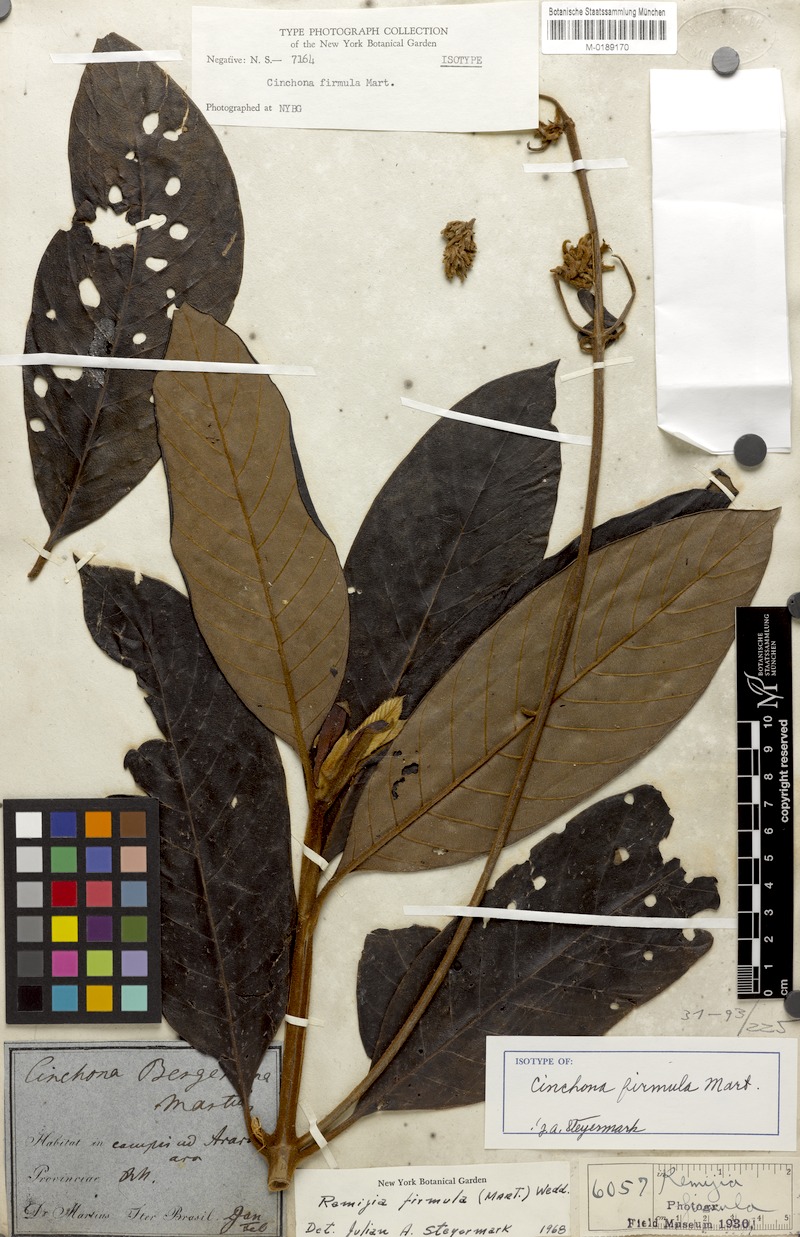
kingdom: Plantae
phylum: Tracheophyta
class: Magnoliopsida
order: Gentianales
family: Rubiaceae
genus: Remijia
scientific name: Remijia firmula
